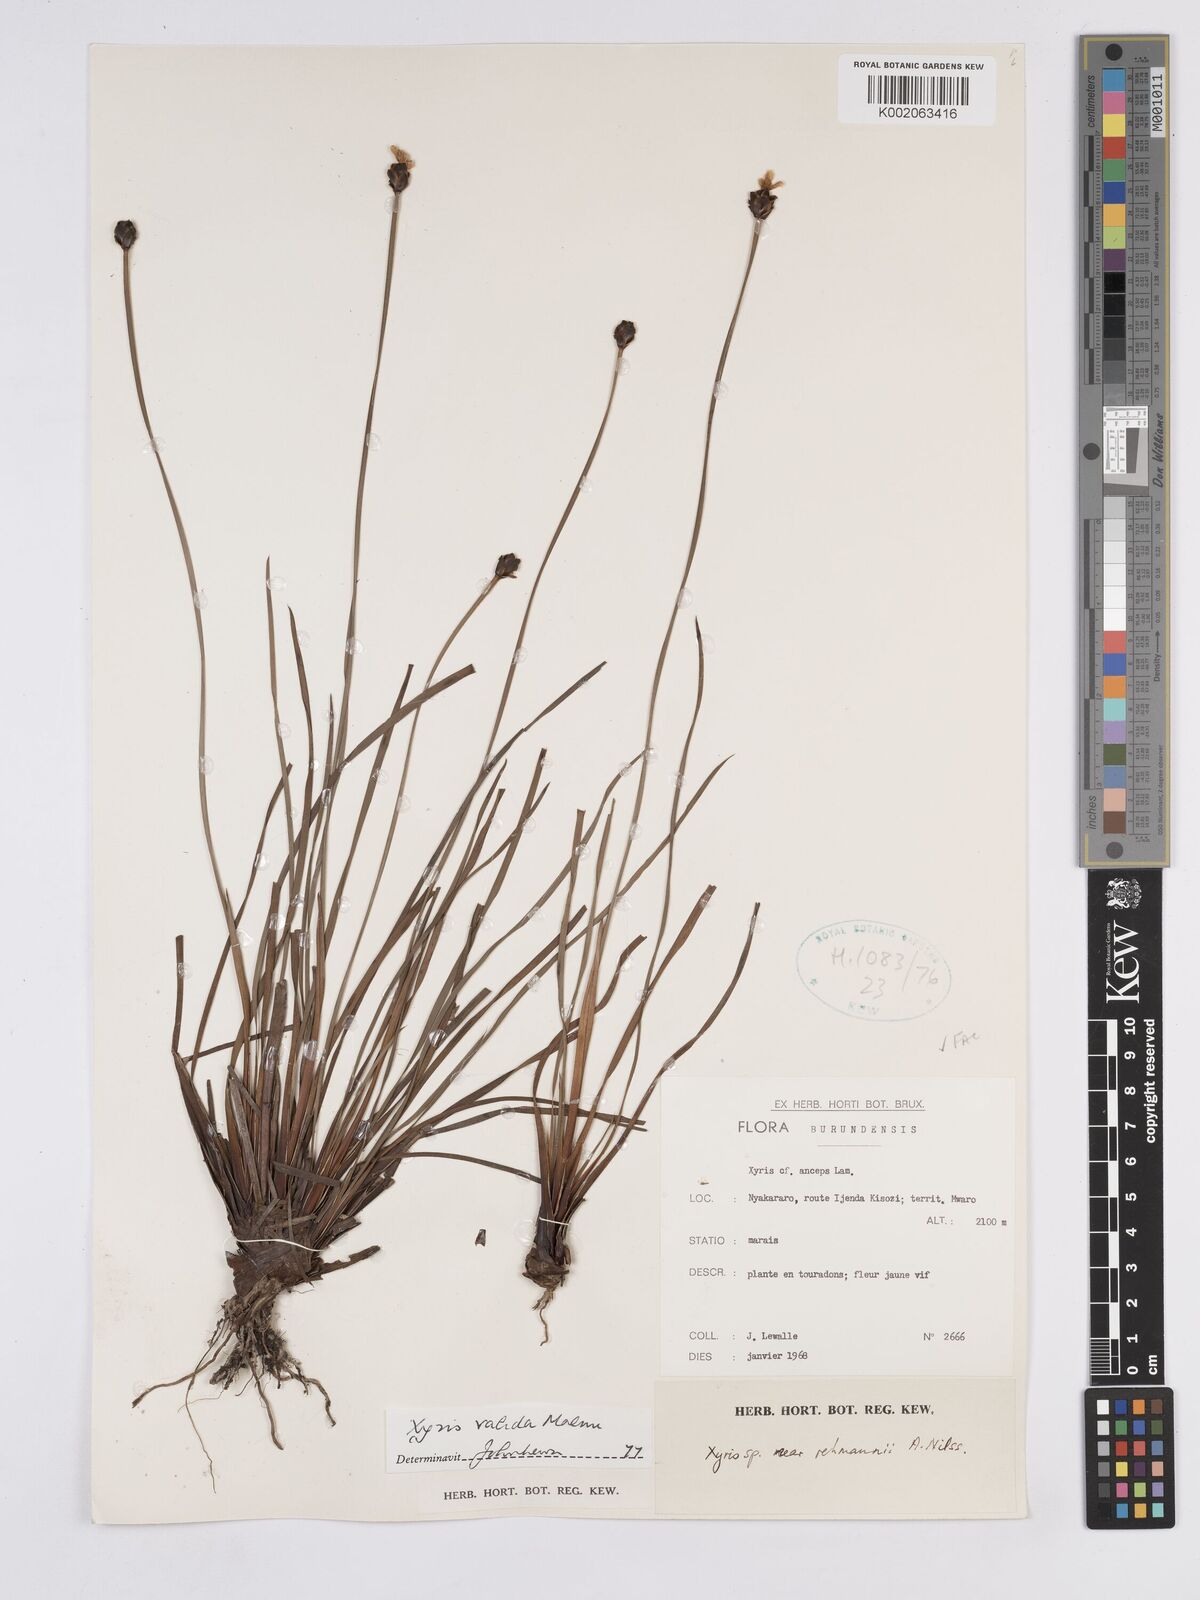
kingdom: Plantae
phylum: Tracheophyta
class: Liliopsida
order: Poales
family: Xyridaceae
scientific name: Xyridaceae
